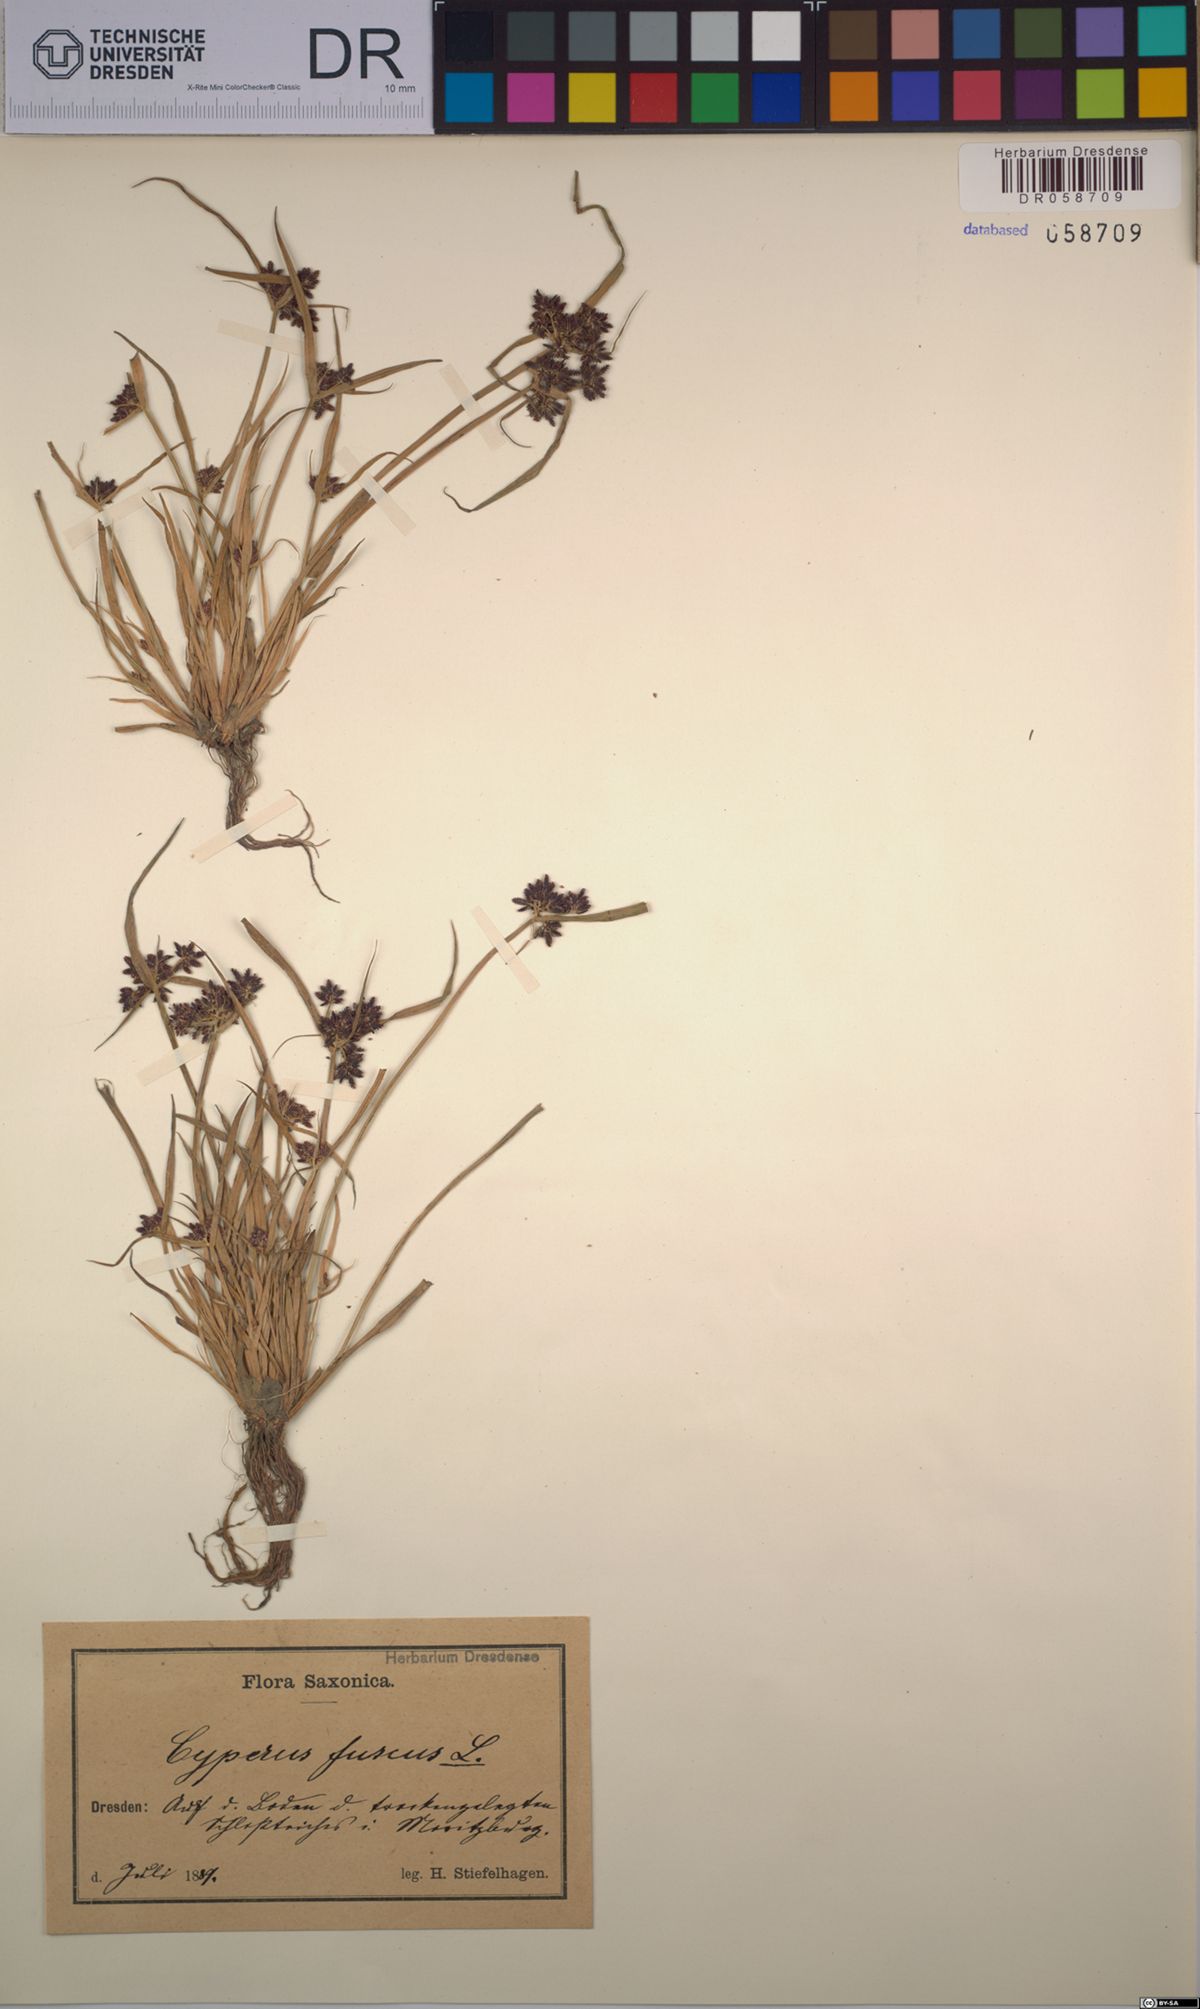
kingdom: Plantae
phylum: Tracheophyta
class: Liliopsida
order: Poales
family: Cyperaceae
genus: Cyperus
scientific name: Cyperus fuscus
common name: Brown galingale
